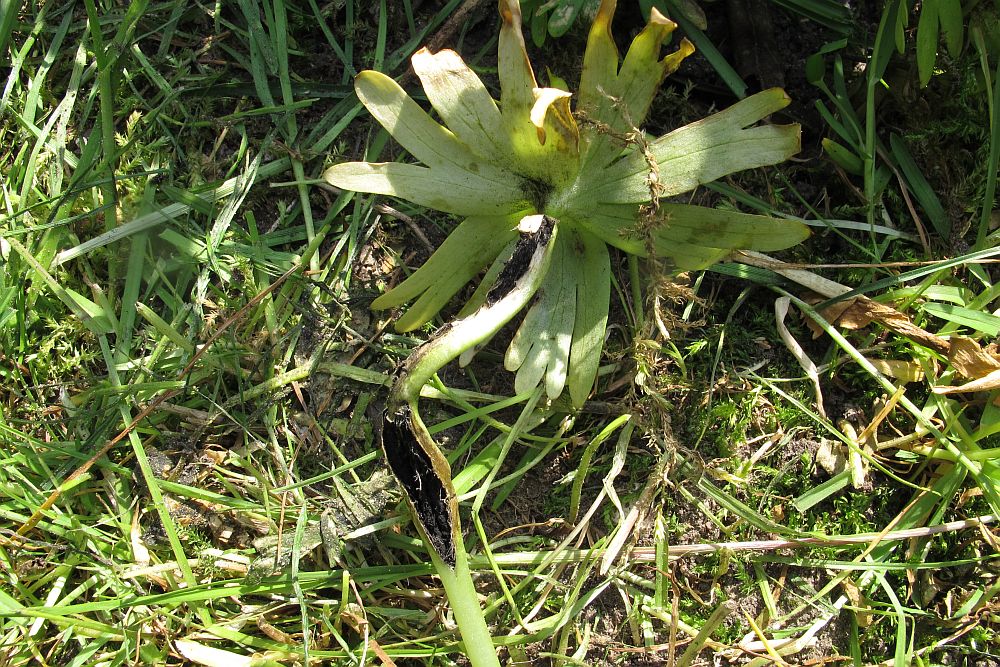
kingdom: Fungi
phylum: Basidiomycota
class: Ustilaginomycetes
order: Urocystidales
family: Urocystidaceae
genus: Urocystis
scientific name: Urocystis eranthidis
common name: erantis-brand
